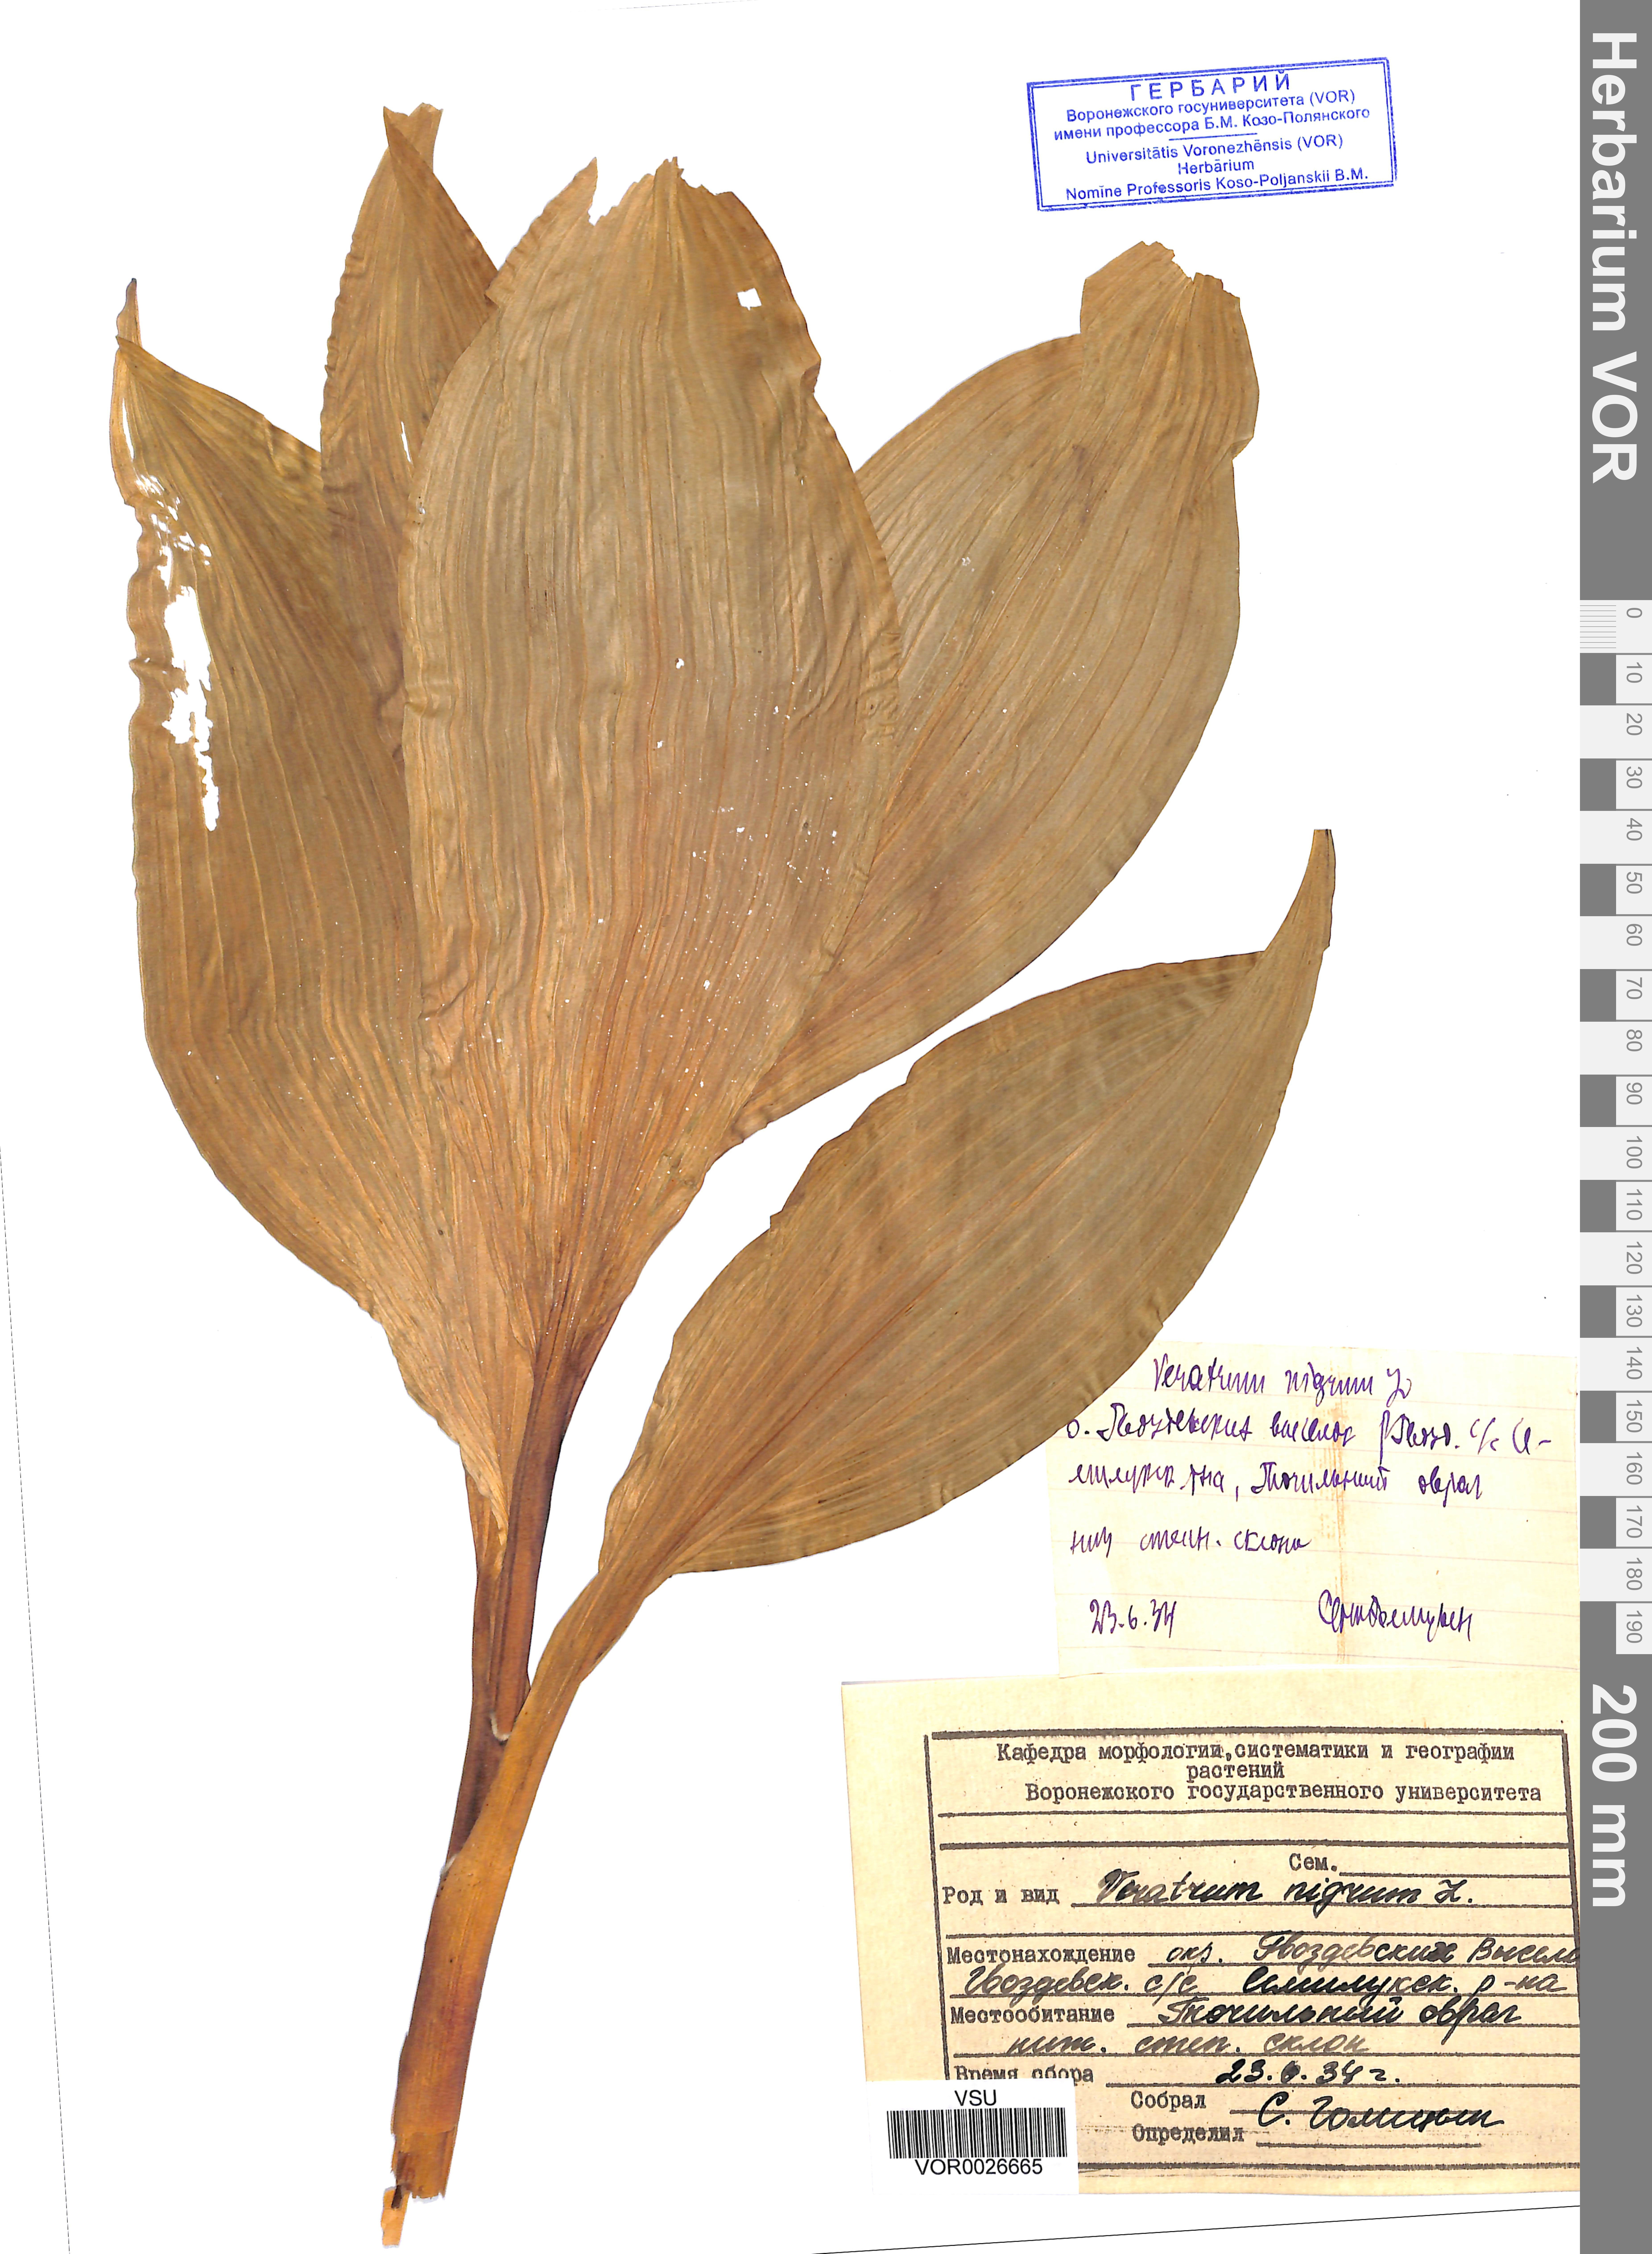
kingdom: Plantae
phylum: Tracheophyta
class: Liliopsida
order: Liliales
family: Melanthiaceae
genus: Veratrum
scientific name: Veratrum nigrum
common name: Black veratrum
